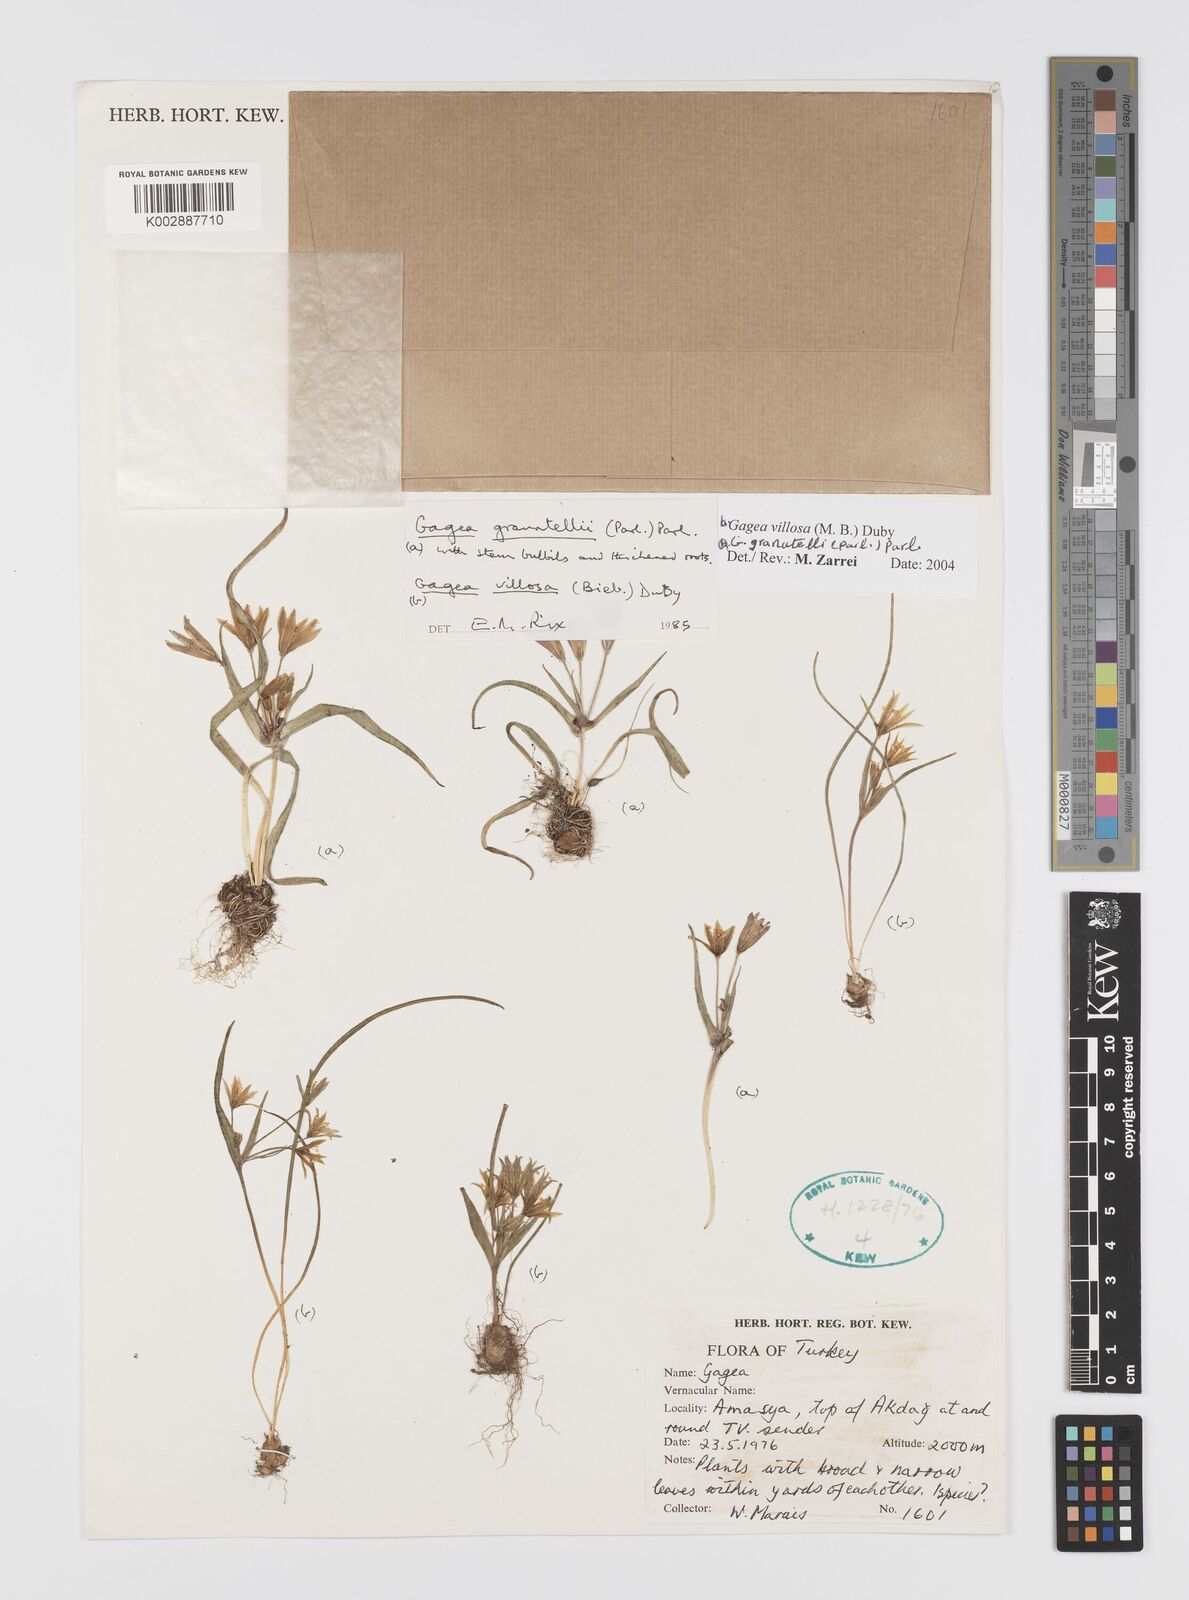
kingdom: Plantae
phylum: Tracheophyta
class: Liliopsida
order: Liliales
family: Liliaceae
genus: Gagea
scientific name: Gagea granatellii
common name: Granatelli’s gagea
